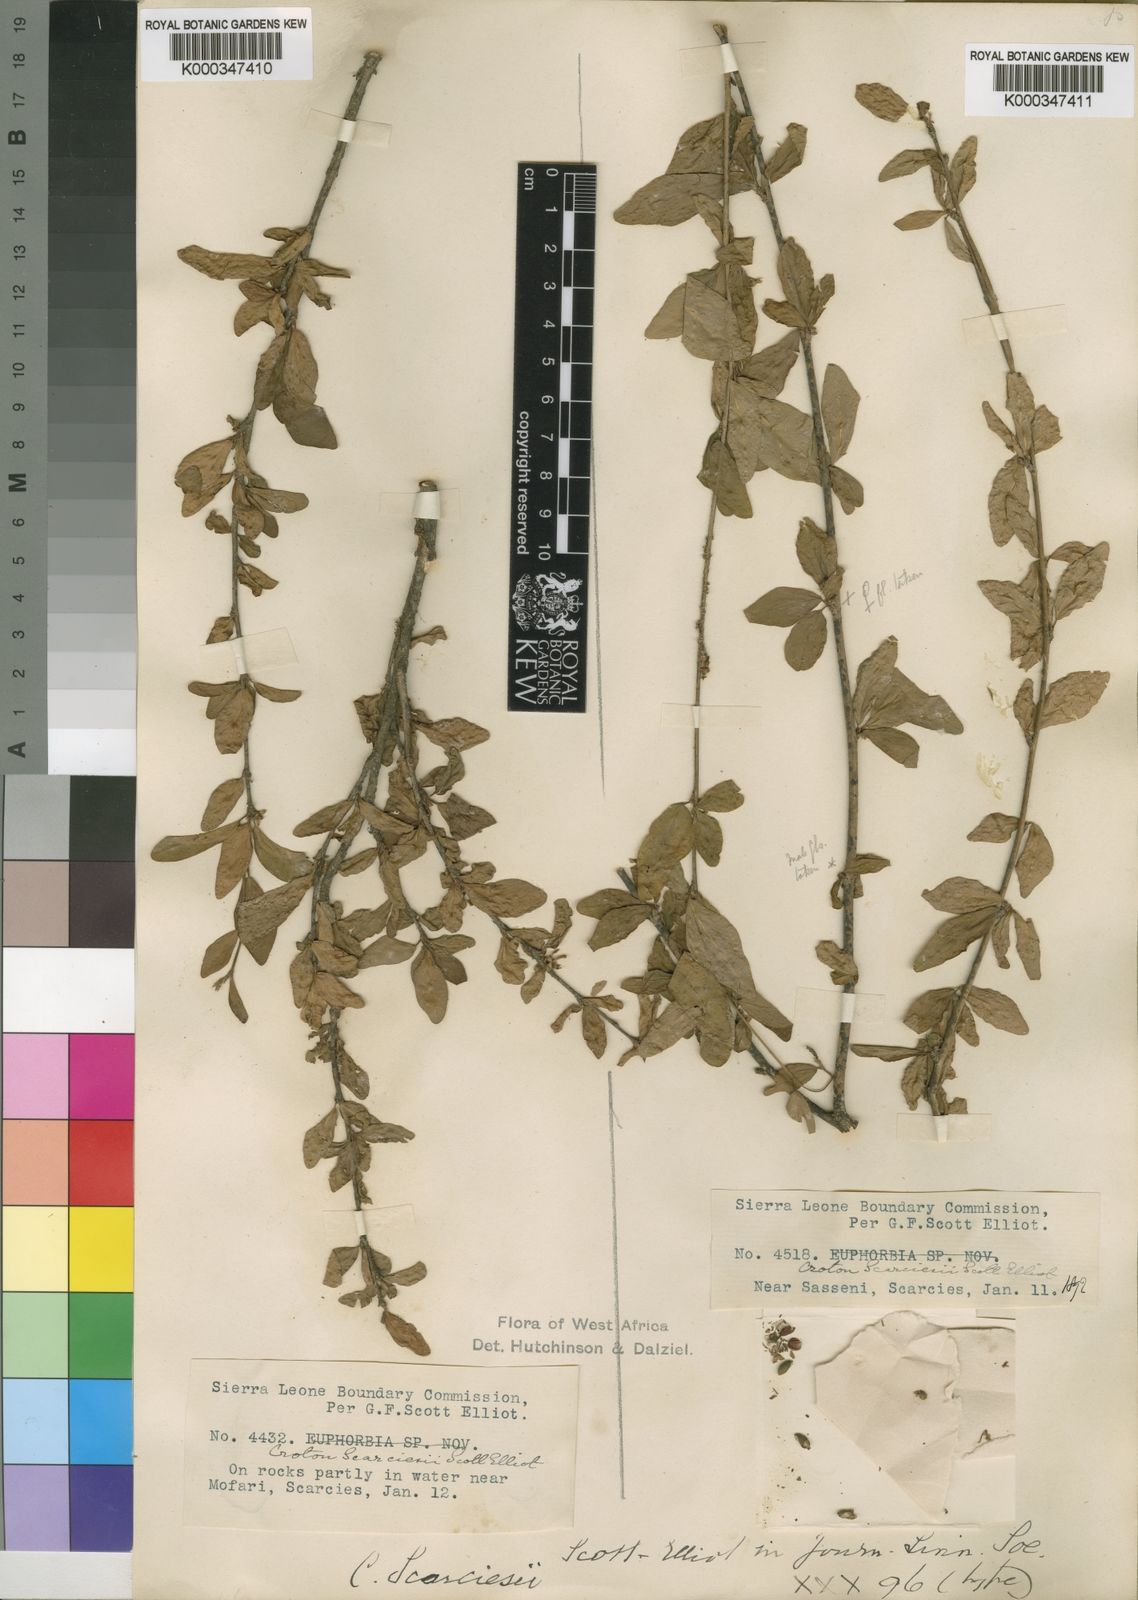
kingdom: Plantae
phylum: Tracheophyta
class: Magnoliopsida
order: Malpighiales
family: Euphorbiaceae
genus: Karima
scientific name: Karima scarciesii
